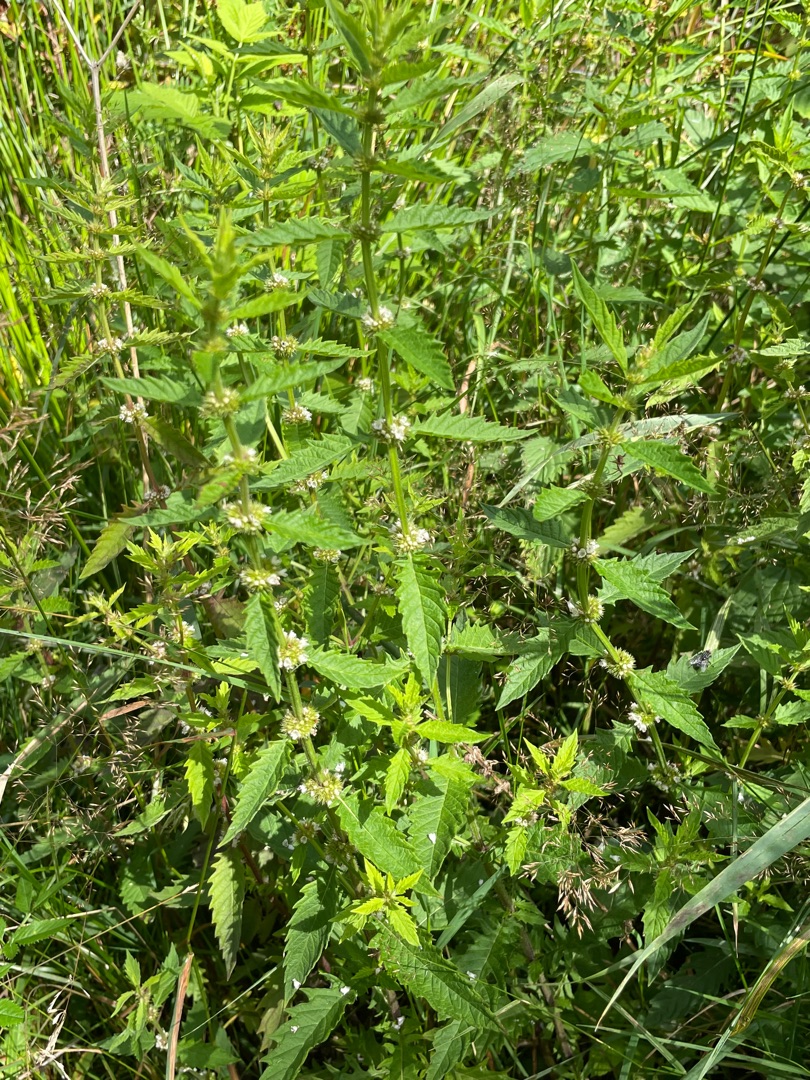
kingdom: Plantae
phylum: Tracheophyta
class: Magnoliopsida
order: Lamiales
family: Lamiaceae
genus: Lycopus
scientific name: Lycopus europaeus
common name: Sværtevæld
